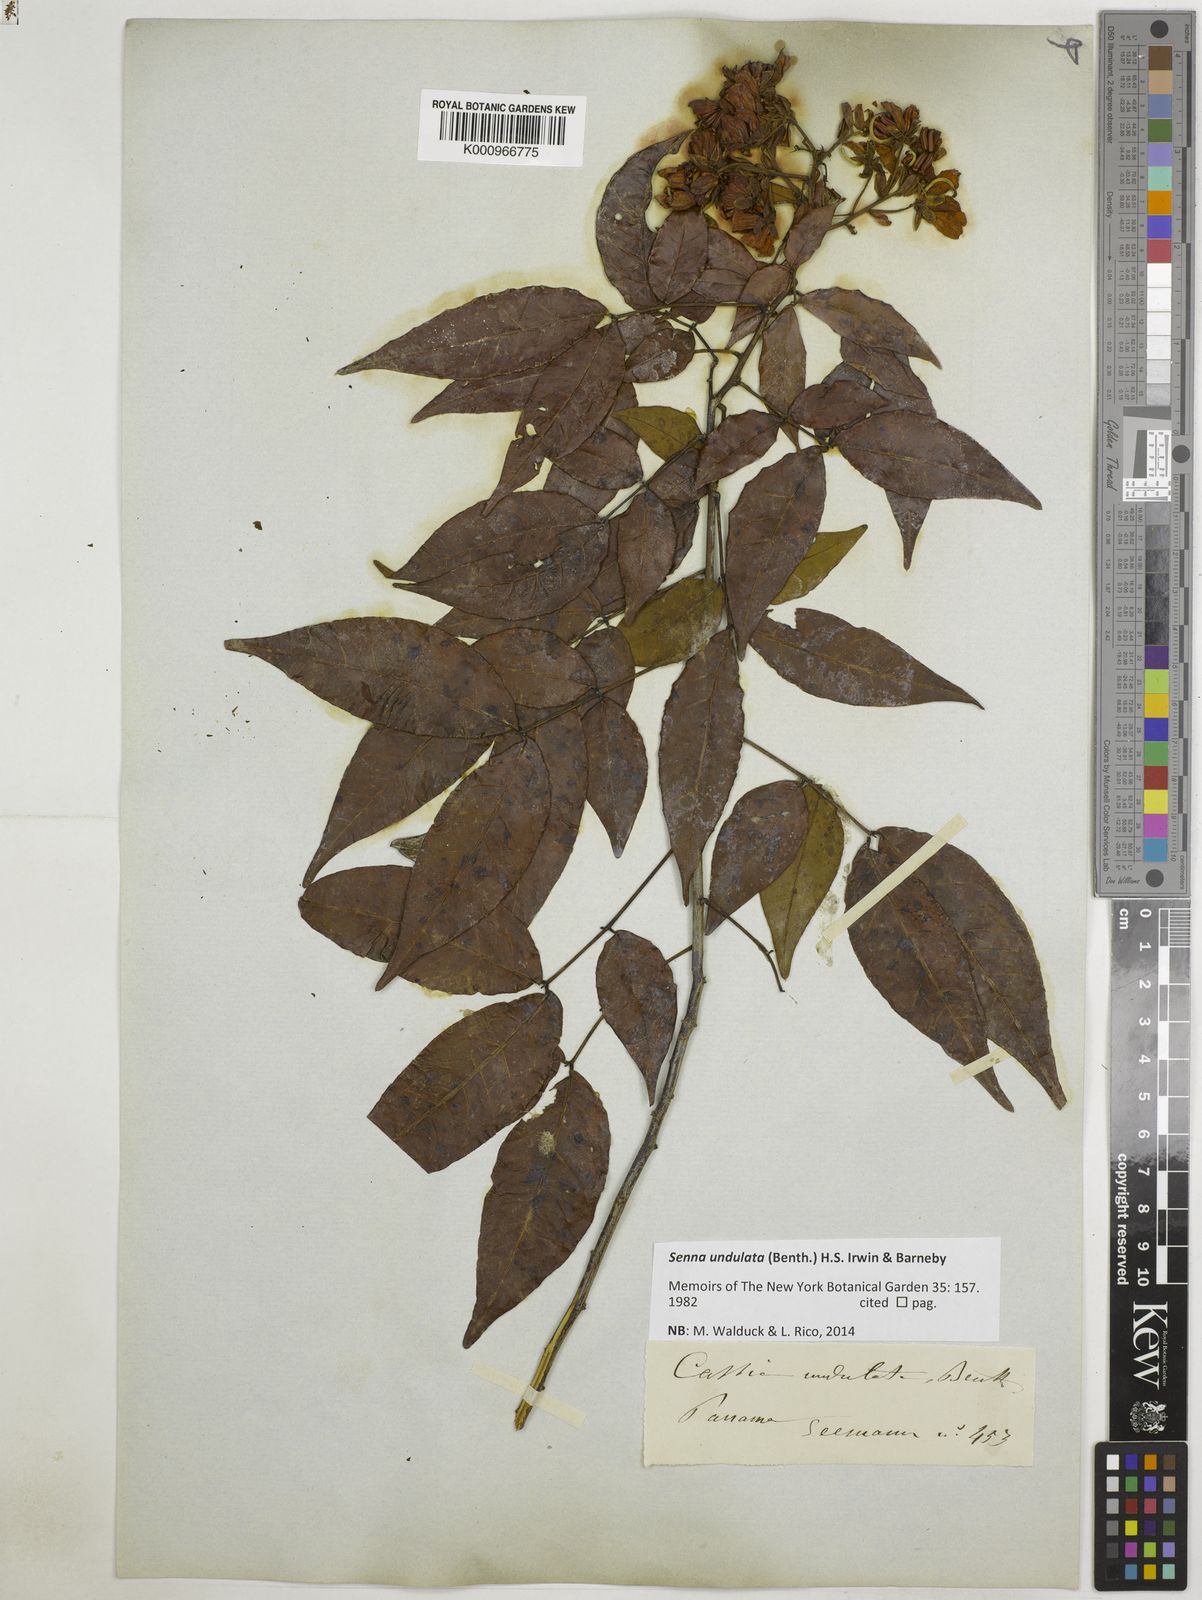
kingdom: Plantae
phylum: Tracheophyta
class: Magnoliopsida
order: Fabales
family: Fabaceae
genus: Senna
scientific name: Senna undulata
